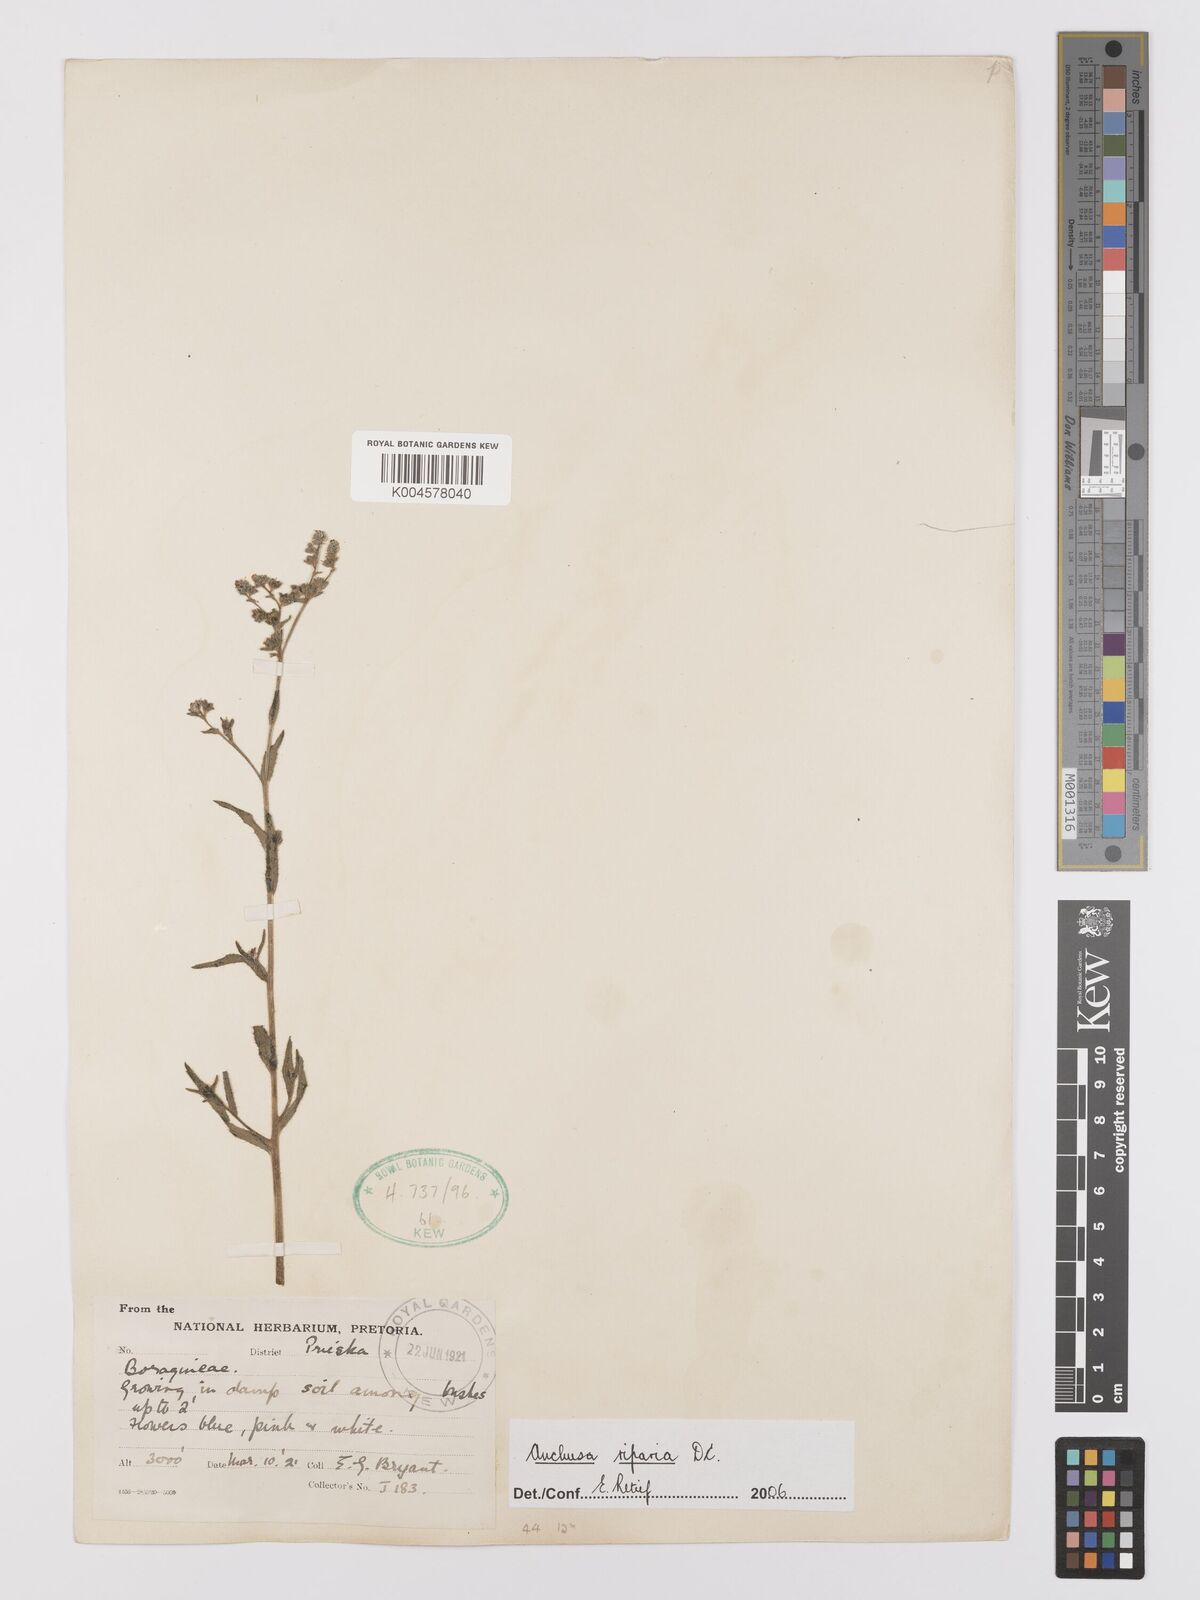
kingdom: Plantae
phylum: Tracheophyta
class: Magnoliopsida
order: Boraginales
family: Boraginaceae
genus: Anchusa
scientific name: Anchusa capensis
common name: Cape bugloss
